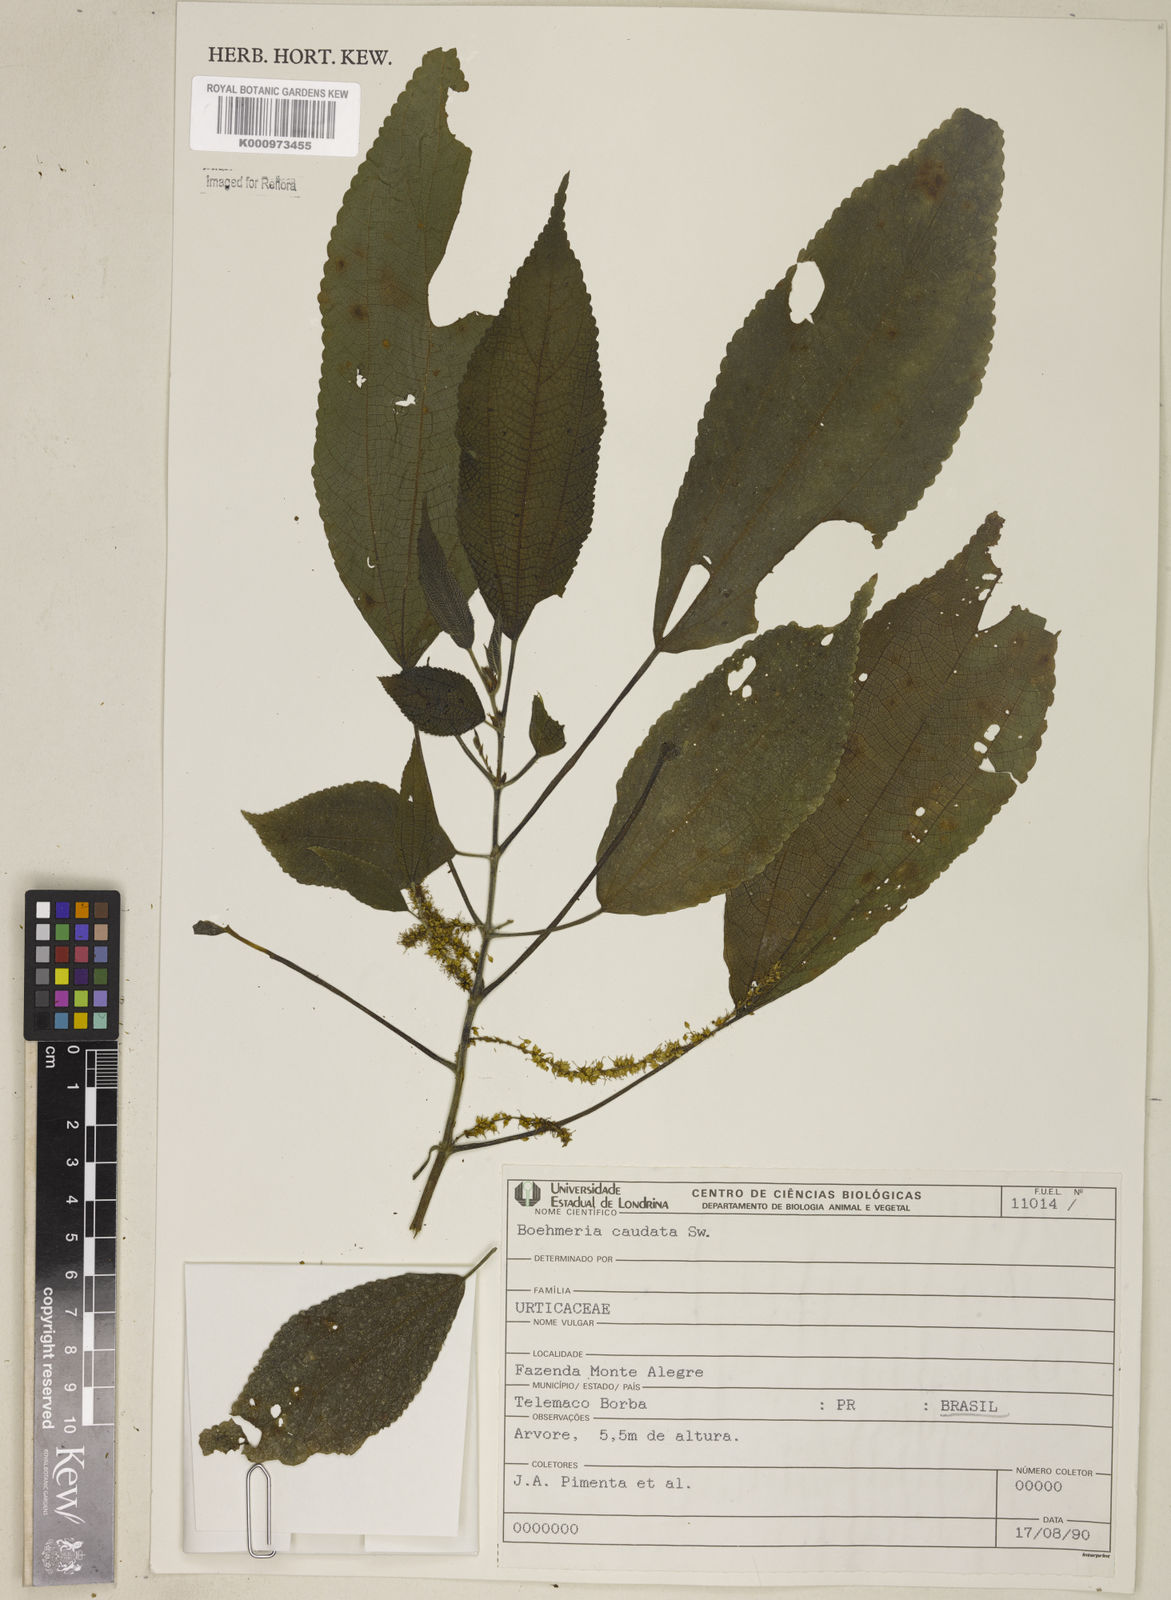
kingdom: Plantae
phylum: Tracheophyta
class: Magnoliopsida
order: Rosales
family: Urticaceae
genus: Boehmeria
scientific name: Boehmeria caudata
